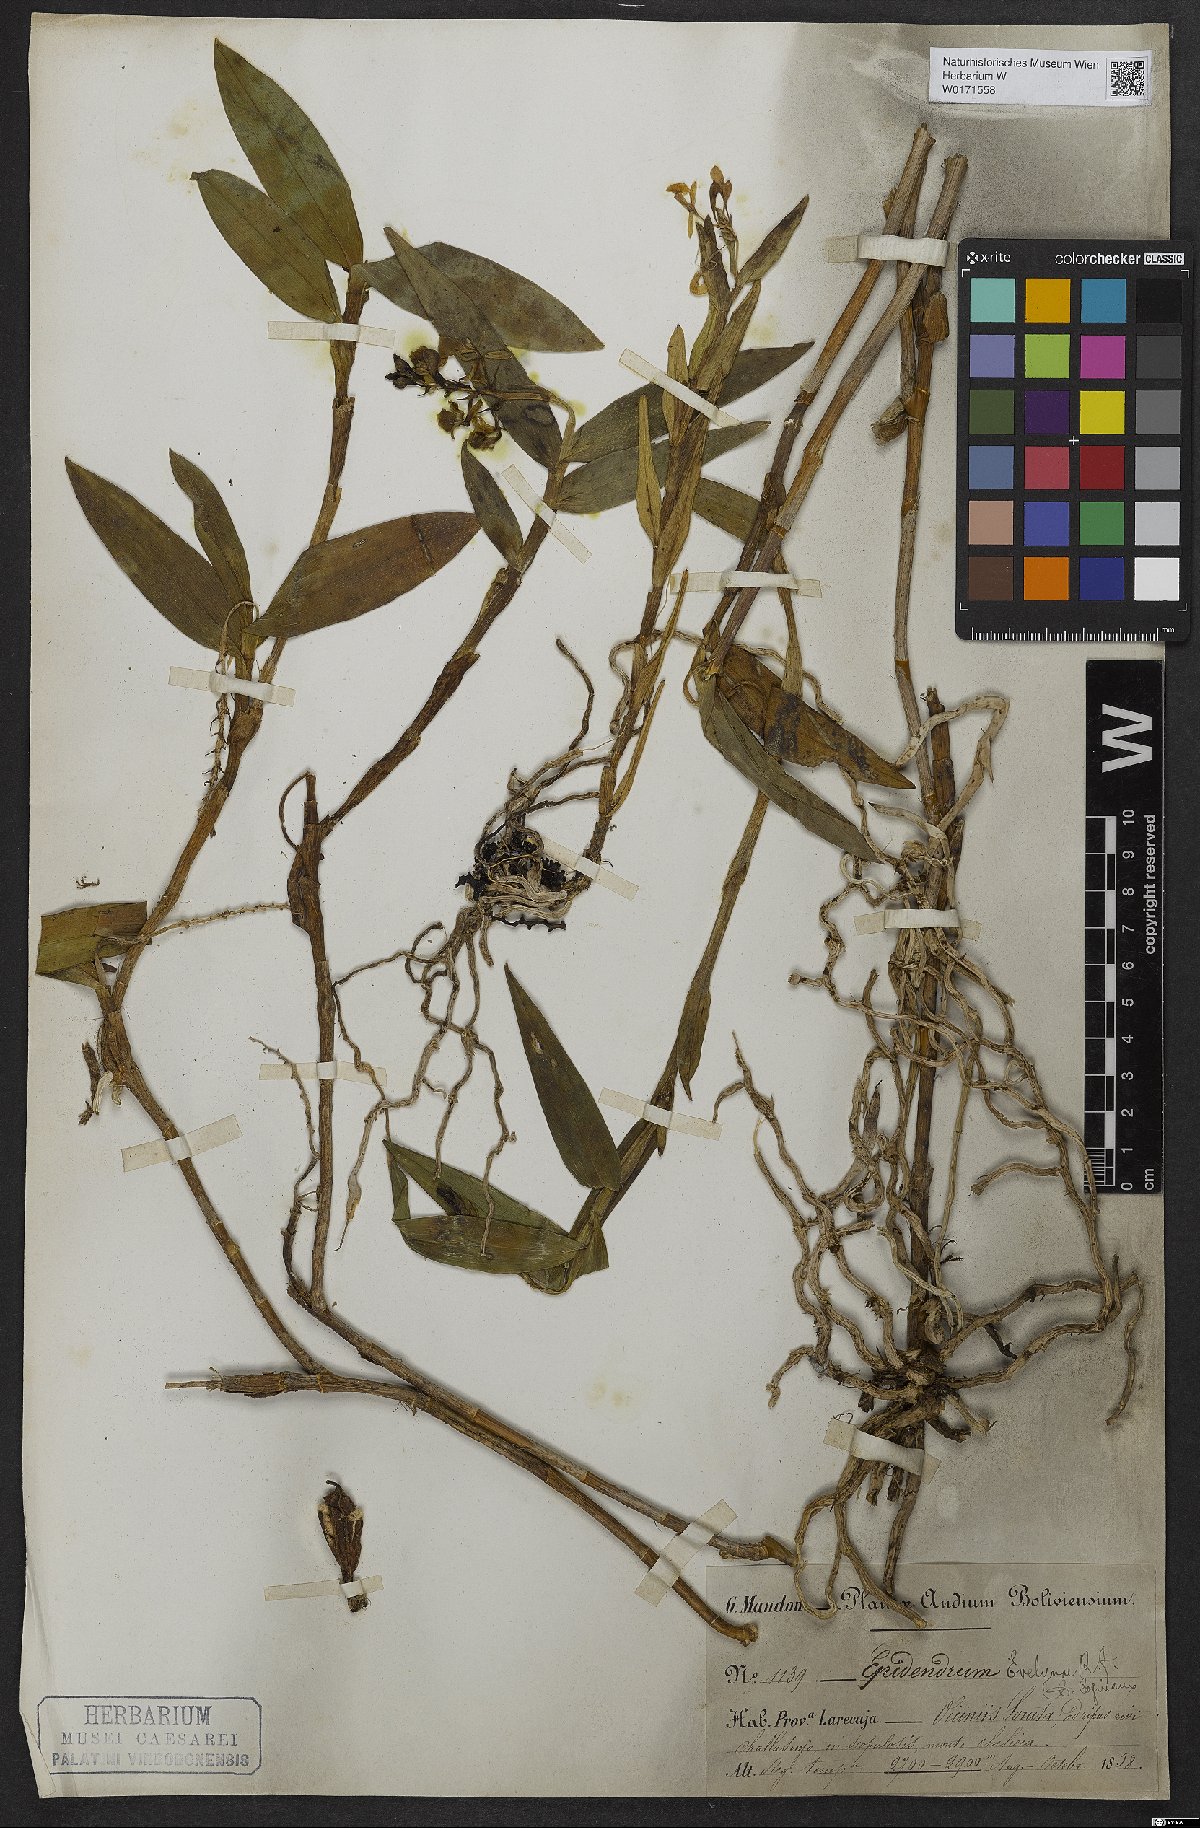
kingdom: Plantae
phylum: Tracheophyta
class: Liliopsida
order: Asparagales
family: Orchidaceae
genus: Epidendrum
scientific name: Epidendrum evelynae
